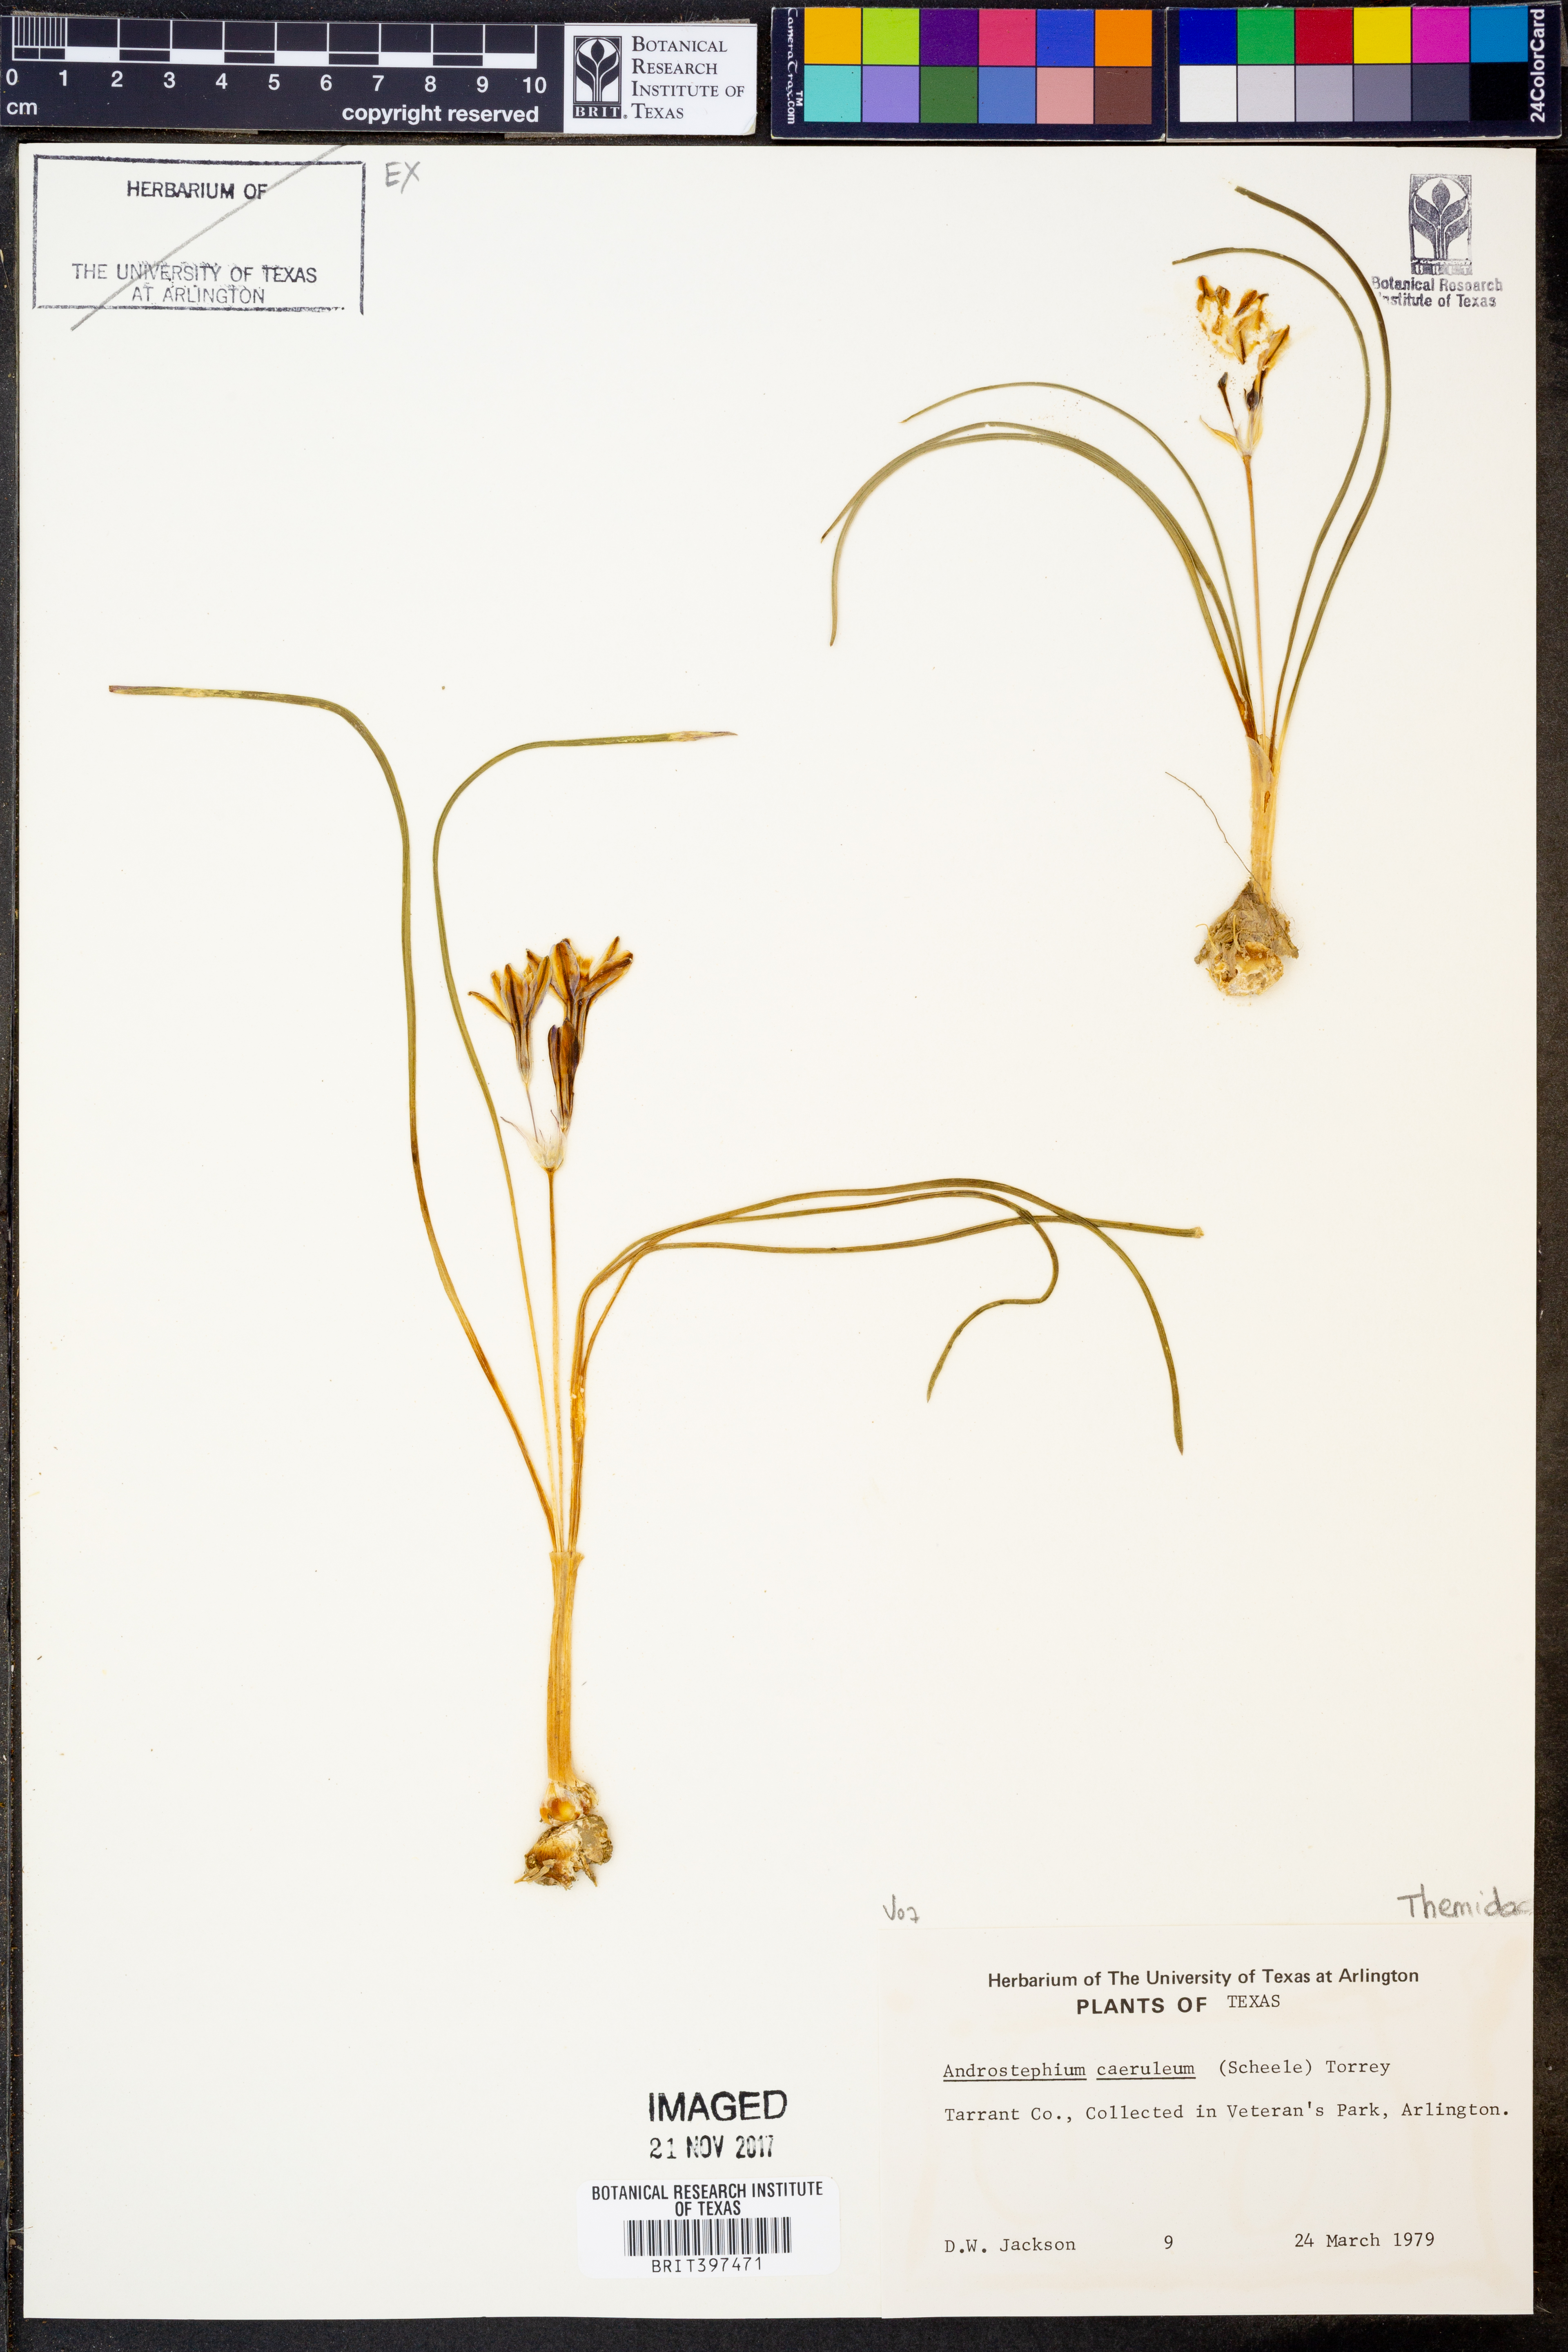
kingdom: Plantae
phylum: Tracheophyta
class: Liliopsida
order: Asparagales
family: Asparagaceae
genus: Androstephium
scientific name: Androstephium caeruleum
